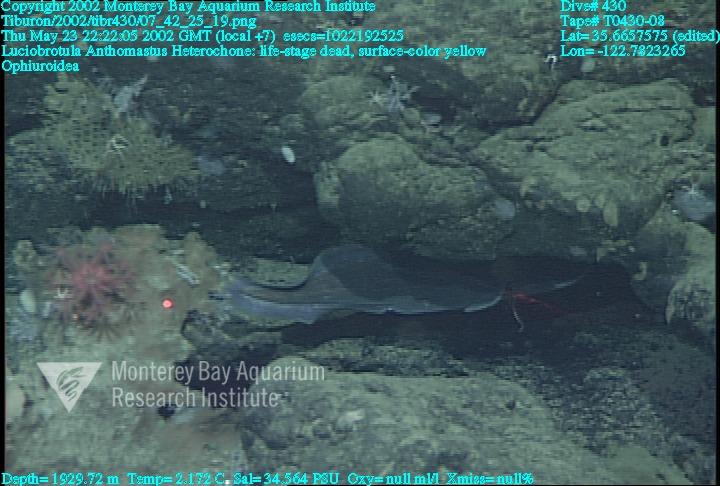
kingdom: Animalia
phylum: Porifera
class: Hexactinellida
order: Sceptrulophora
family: Aphrocallistidae
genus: Heterochone
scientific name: Heterochone
